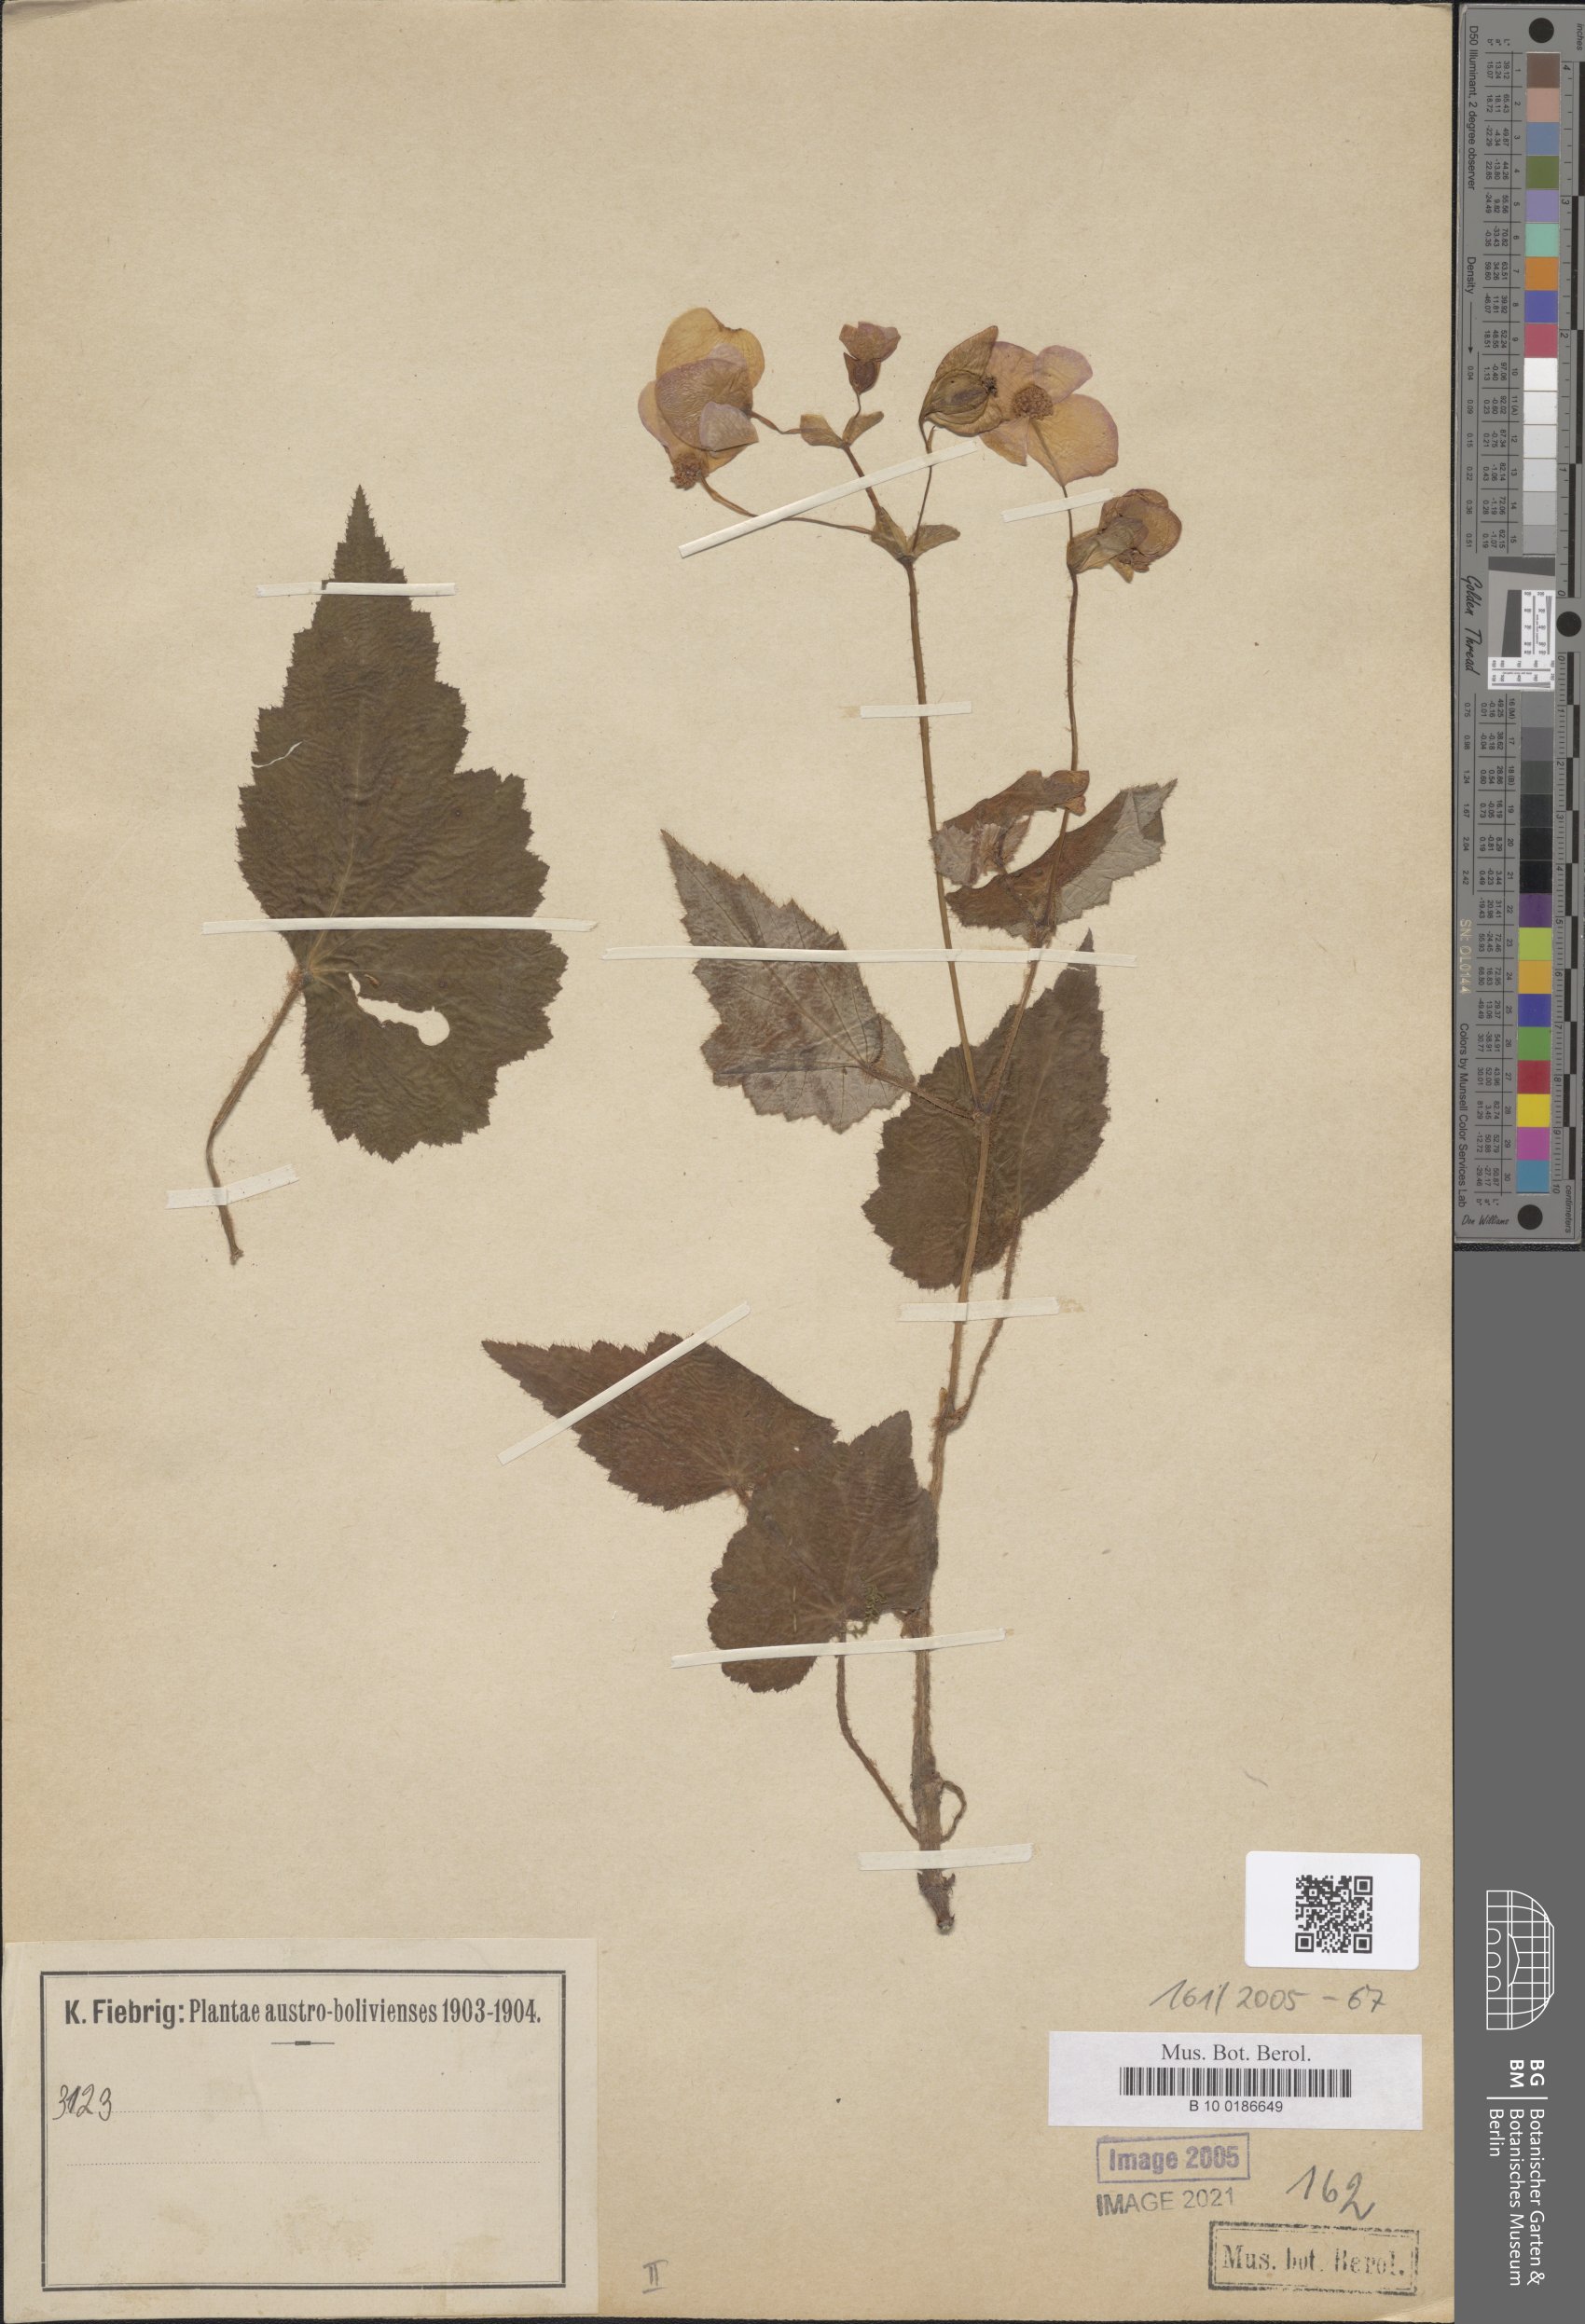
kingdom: Plantae
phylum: Tracheophyta
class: Magnoliopsida
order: Cucurbitales
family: Begoniaceae
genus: Begonia
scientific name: Begonia micranthera
